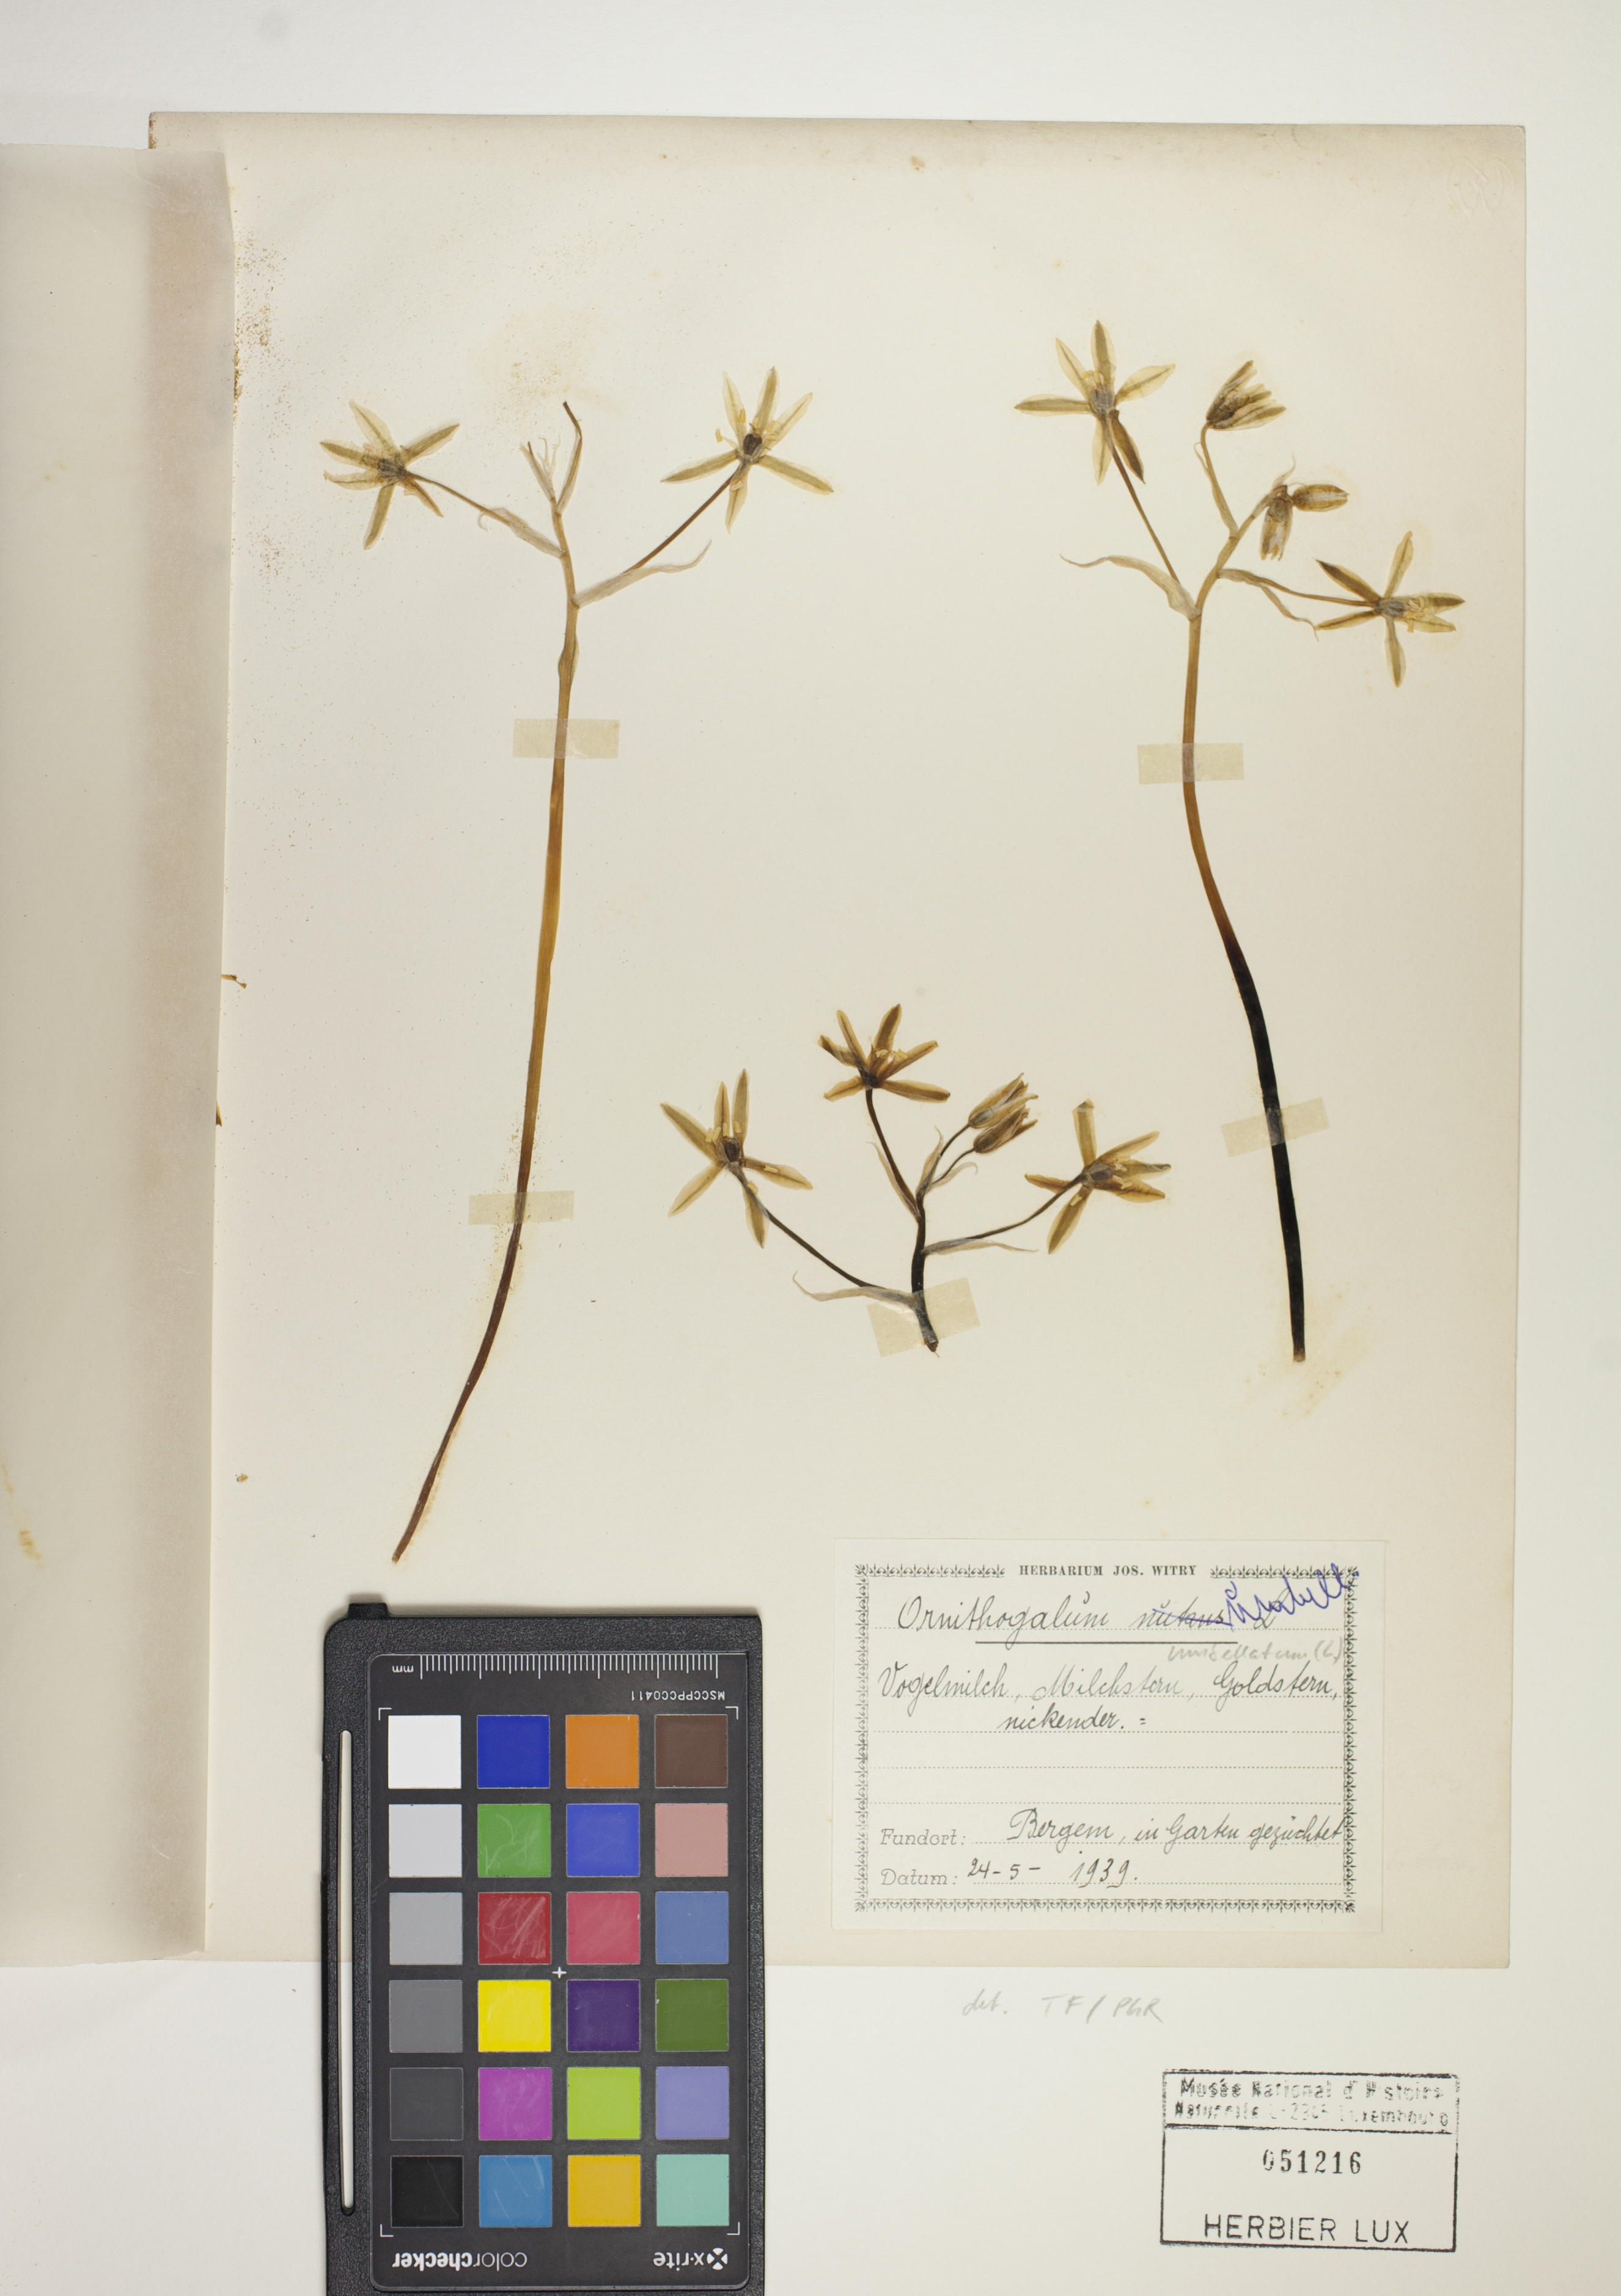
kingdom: Plantae
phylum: Tracheophyta
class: Liliopsida
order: Asparagales
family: Asparagaceae
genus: Ornithogalum
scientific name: Ornithogalum umbellatum
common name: Garden star-of-bethlehem
